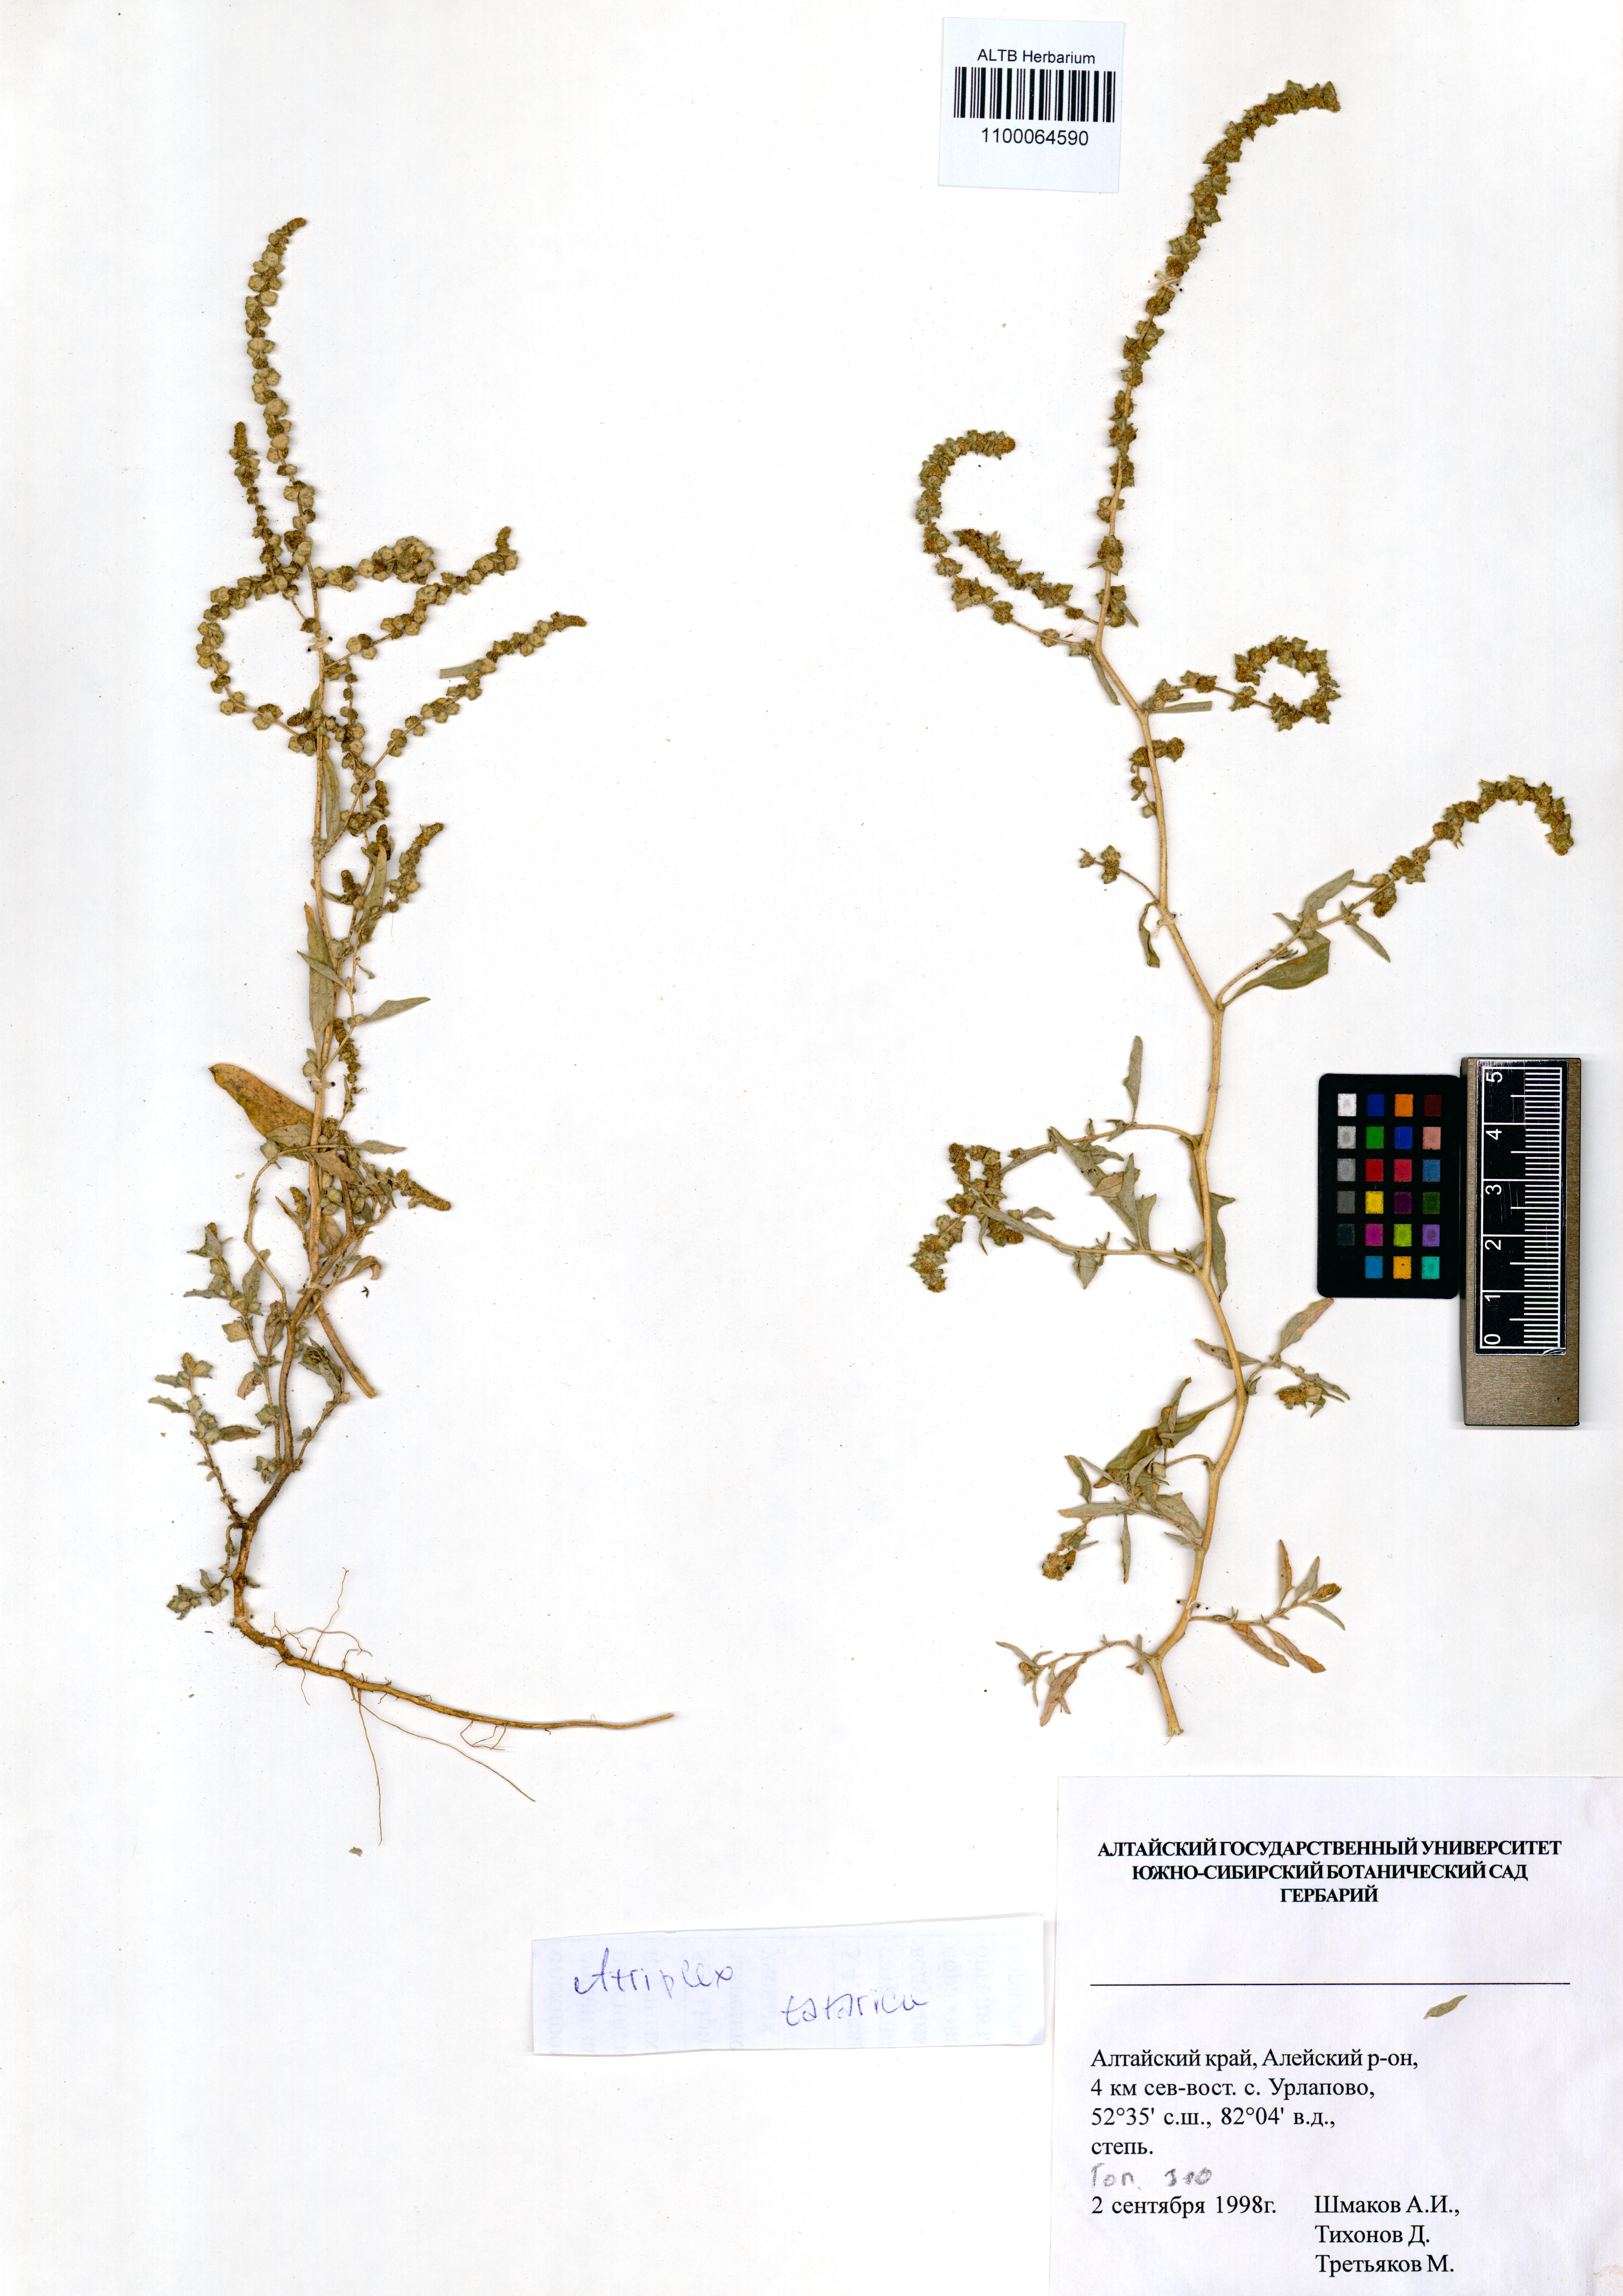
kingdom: Plantae
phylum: Tracheophyta
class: Magnoliopsida
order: Caryophyllales
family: Amaranthaceae
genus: Atriplex
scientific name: Atriplex tatarica
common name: Tatarian orache
